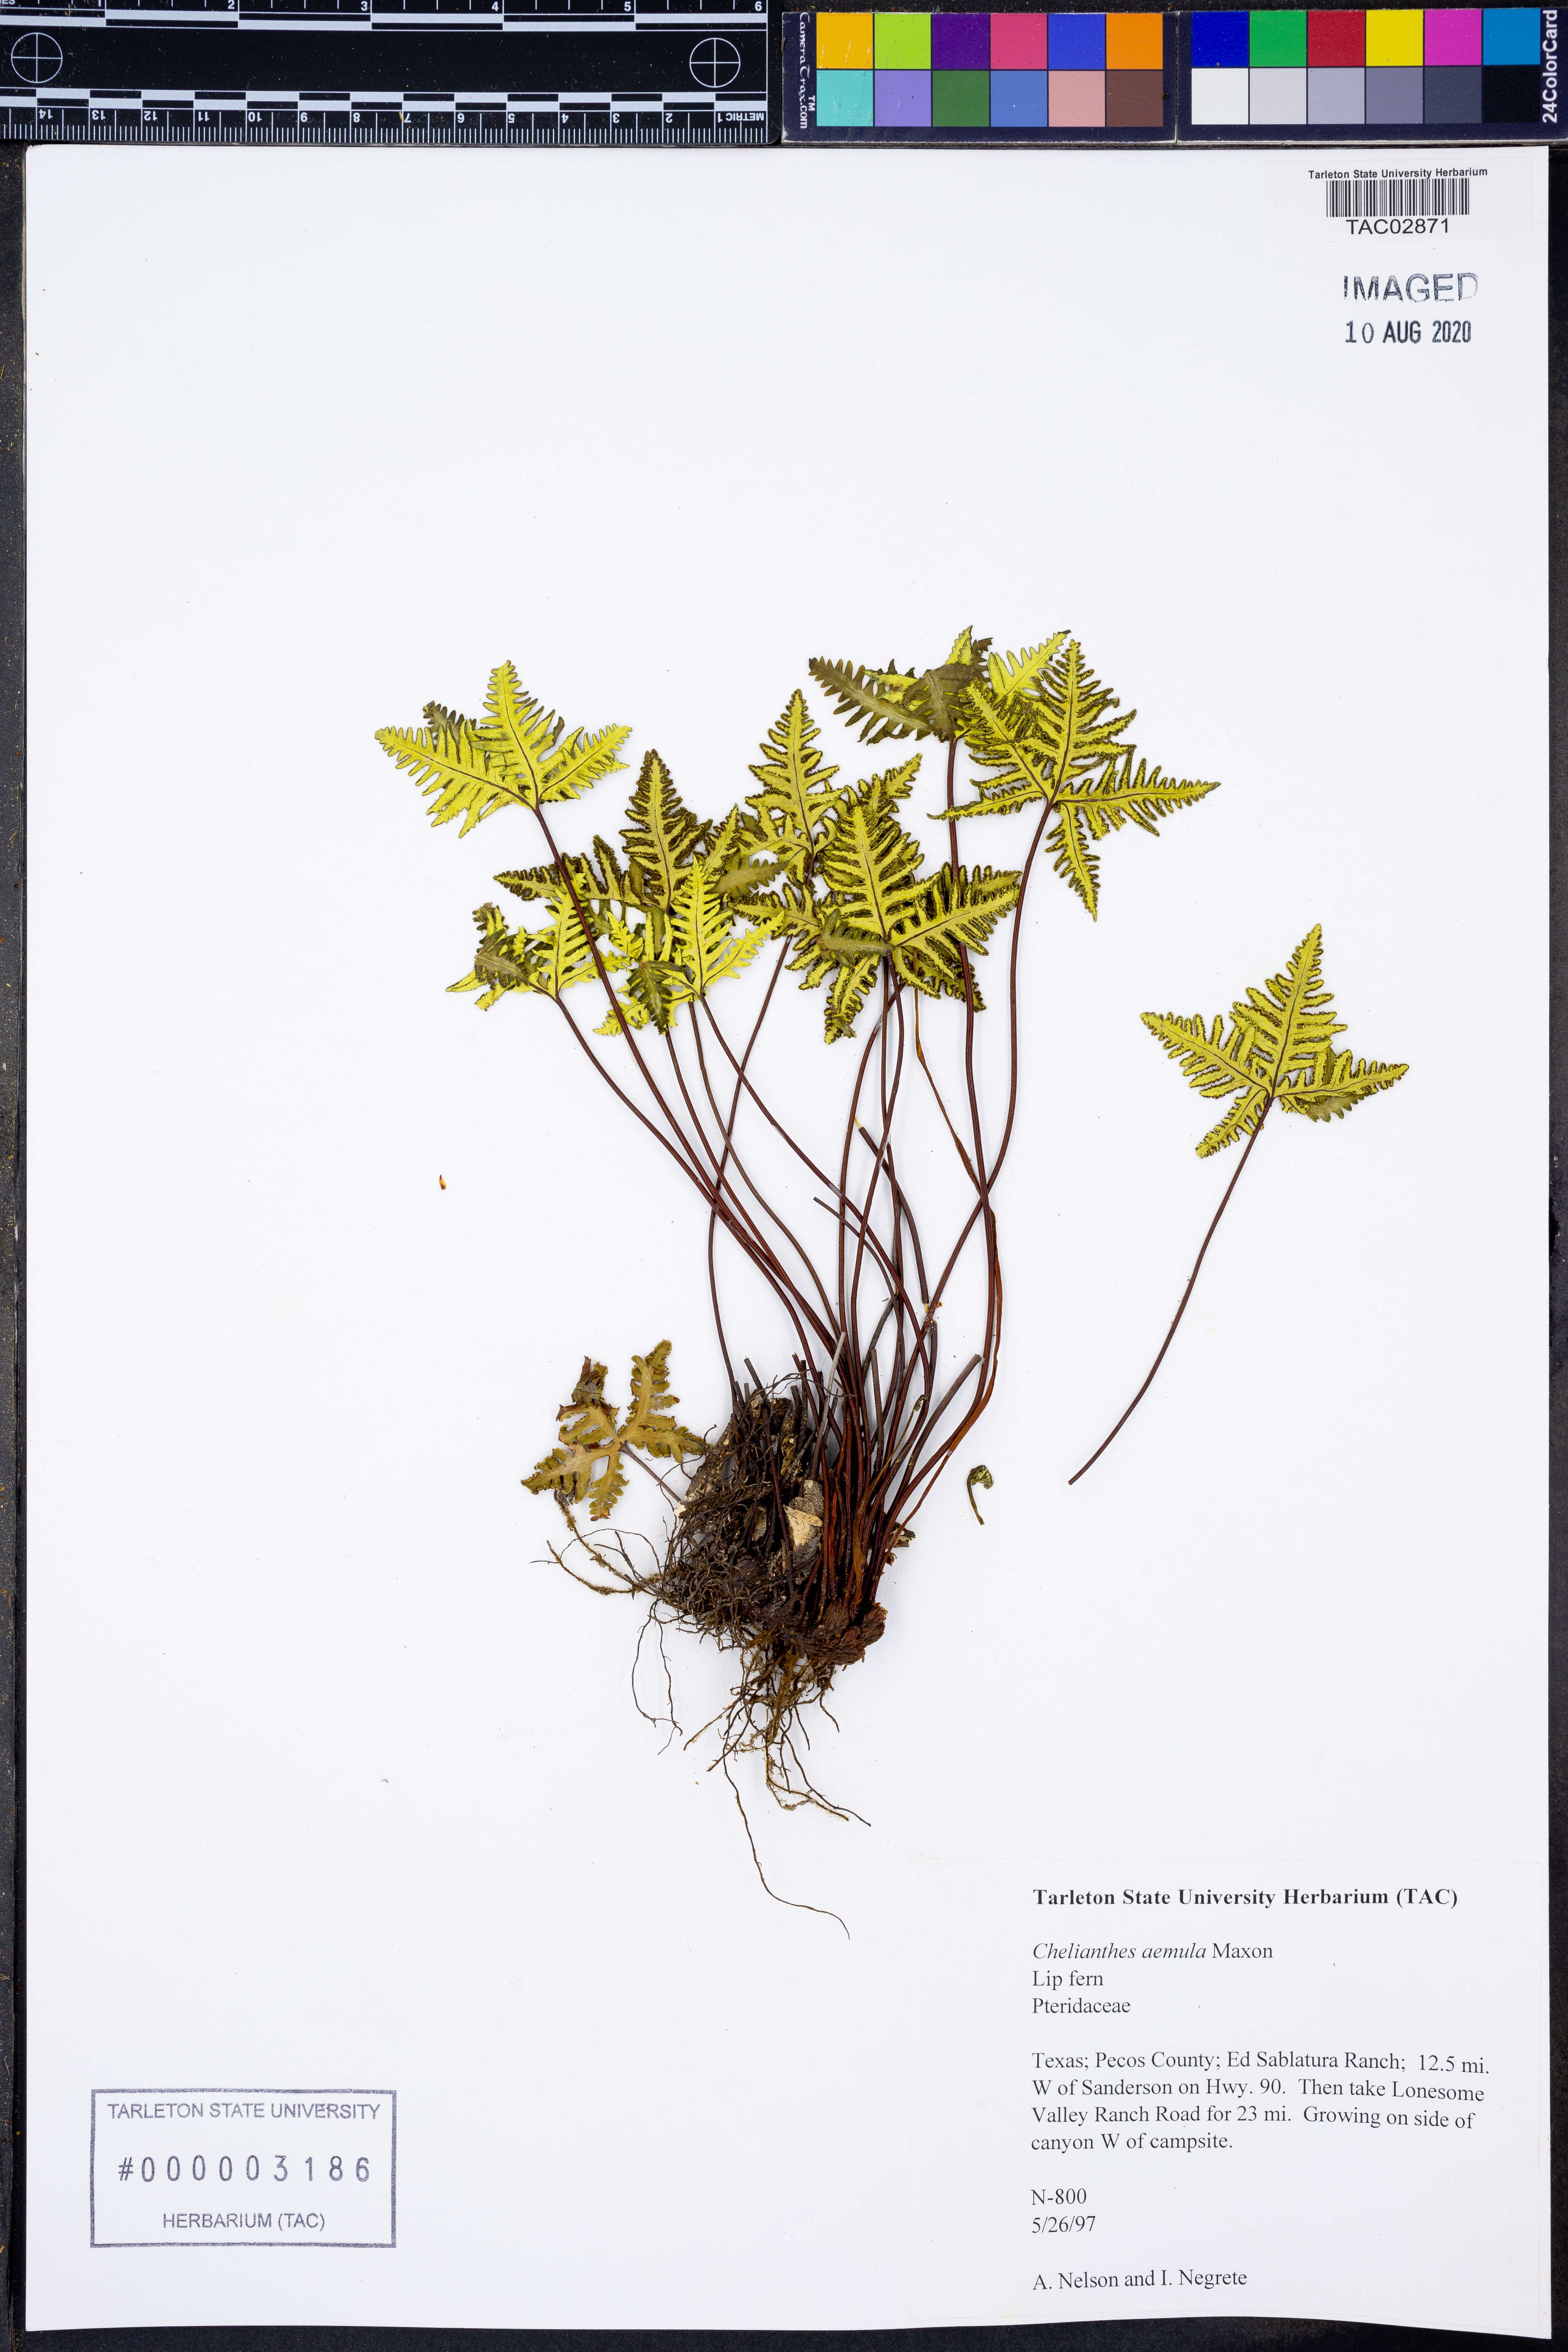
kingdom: Plantae
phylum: Tracheophyta
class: Polypodiopsida
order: Polypodiales
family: Pteridaceae
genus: Myriopteris
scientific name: Myriopteris aemula
